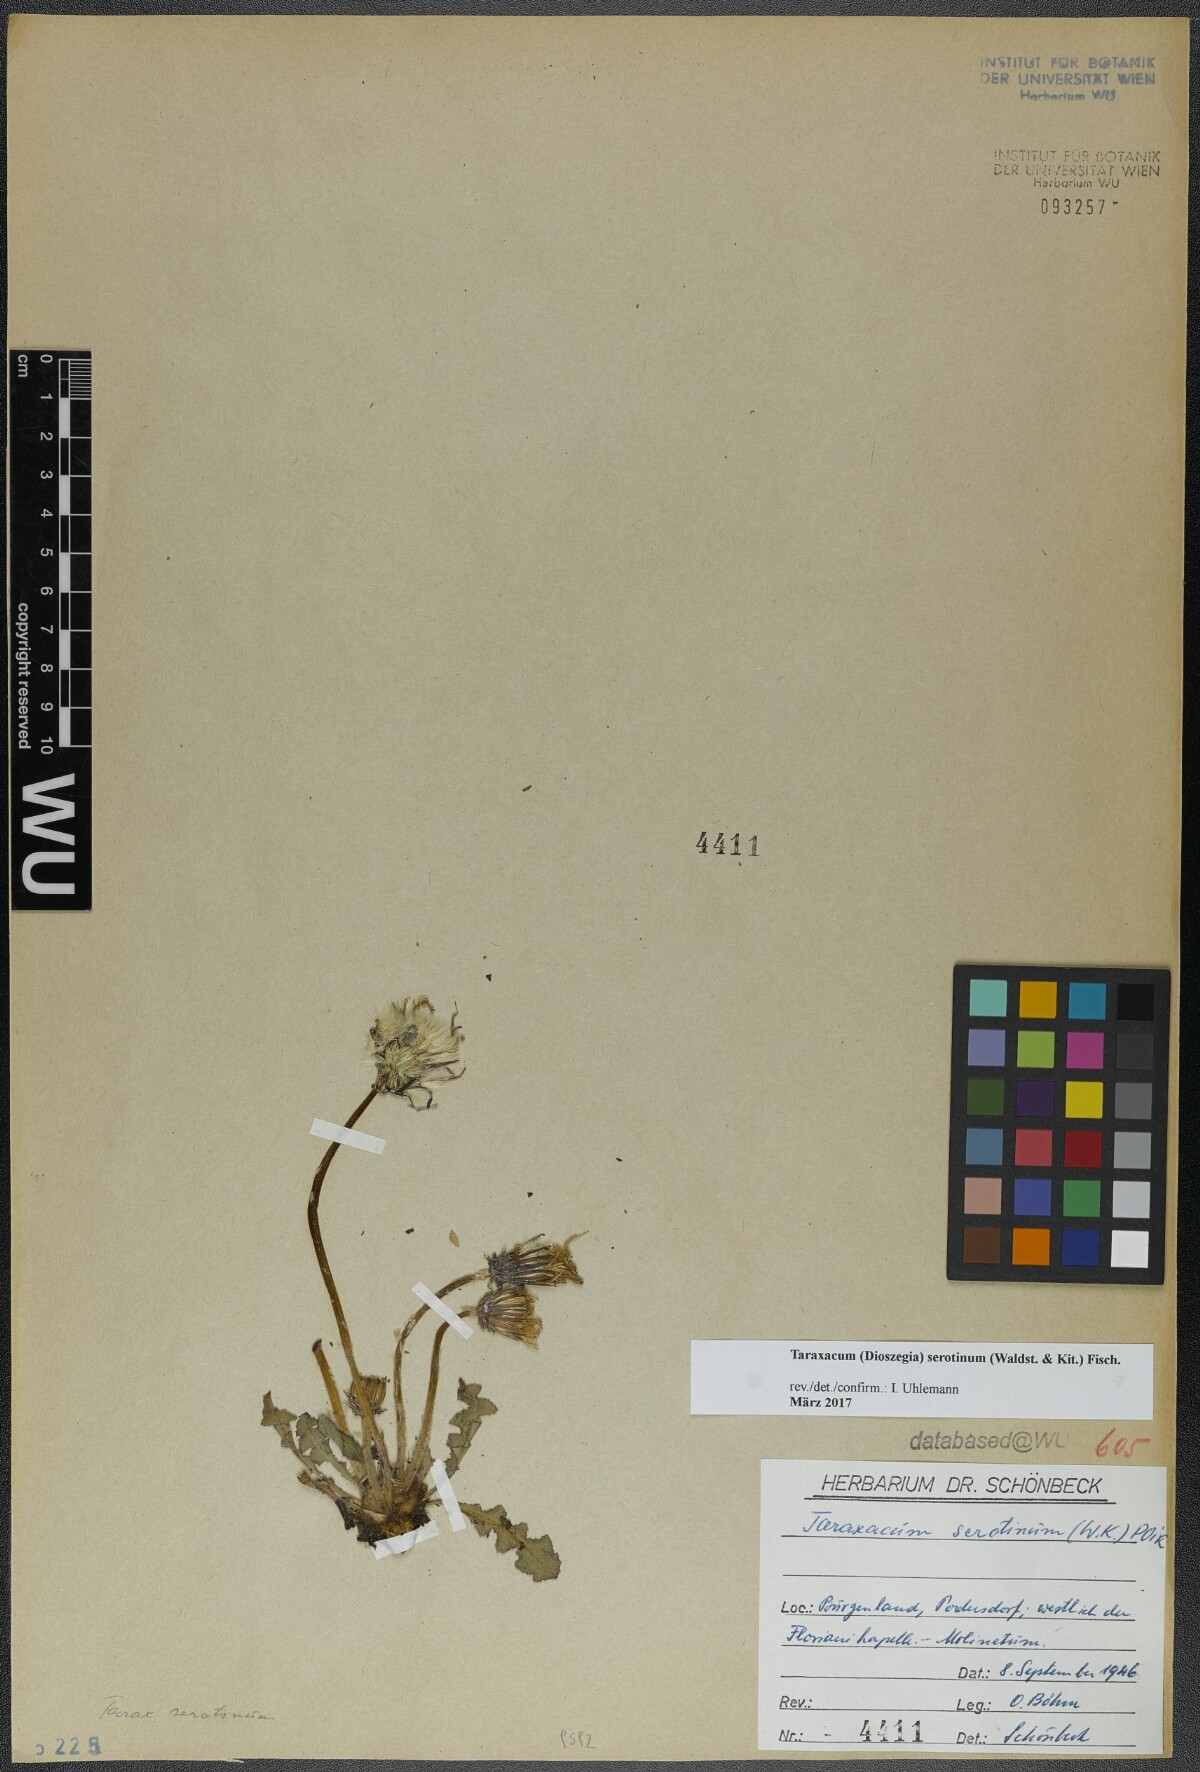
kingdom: Plantae
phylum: Tracheophyta
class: Magnoliopsida
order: Asterales
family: Asteraceae
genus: Taraxacum
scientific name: Taraxacum serotinum
